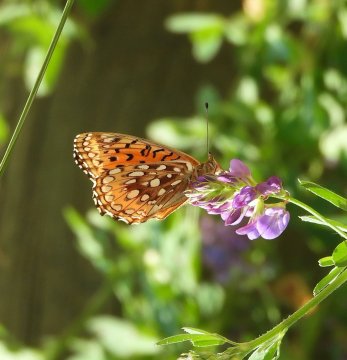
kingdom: Animalia
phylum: Arthropoda
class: Insecta
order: Lepidoptera
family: Nymphalidae
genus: Speyeria
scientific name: Speyeria aphrodite
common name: Aphrodite Fritillary
